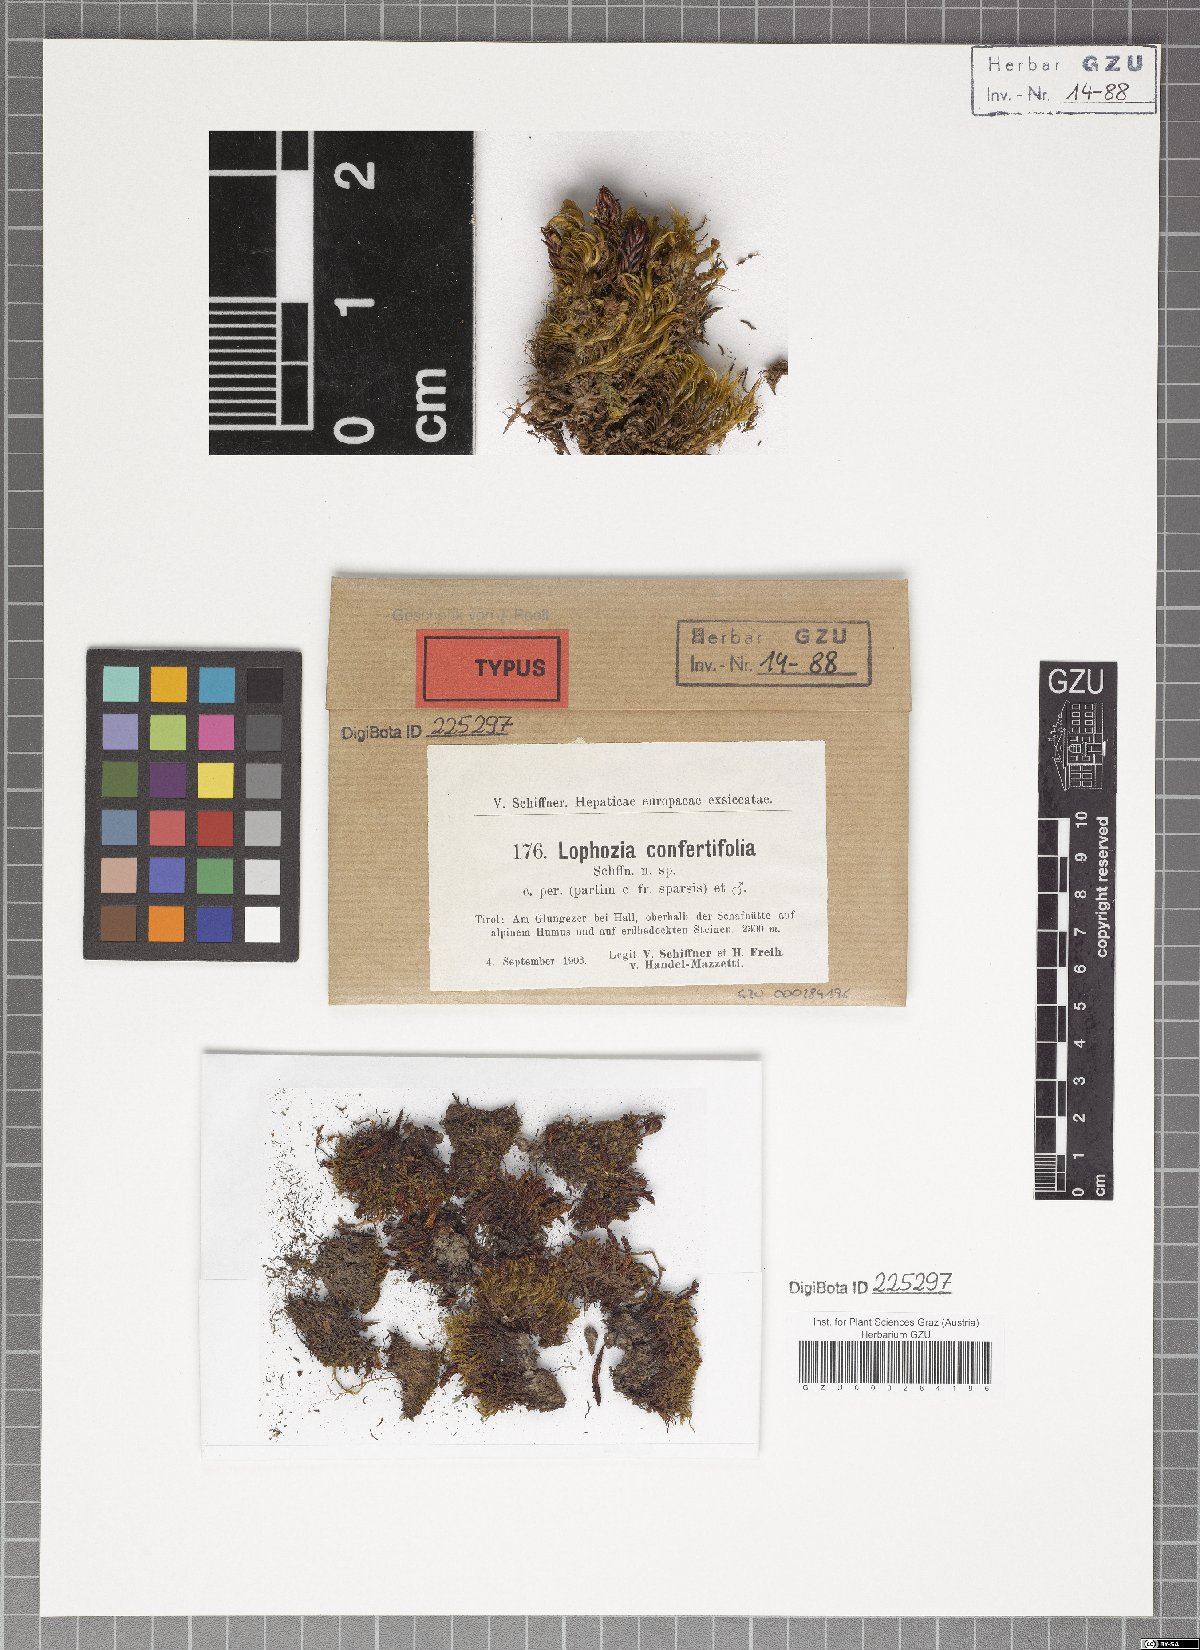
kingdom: Plantae
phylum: Marchantiophyta
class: Jungermanniopsida
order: Jungermanniales
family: Lophoziaceae
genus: Lophozia
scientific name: Lophozia murmanica
